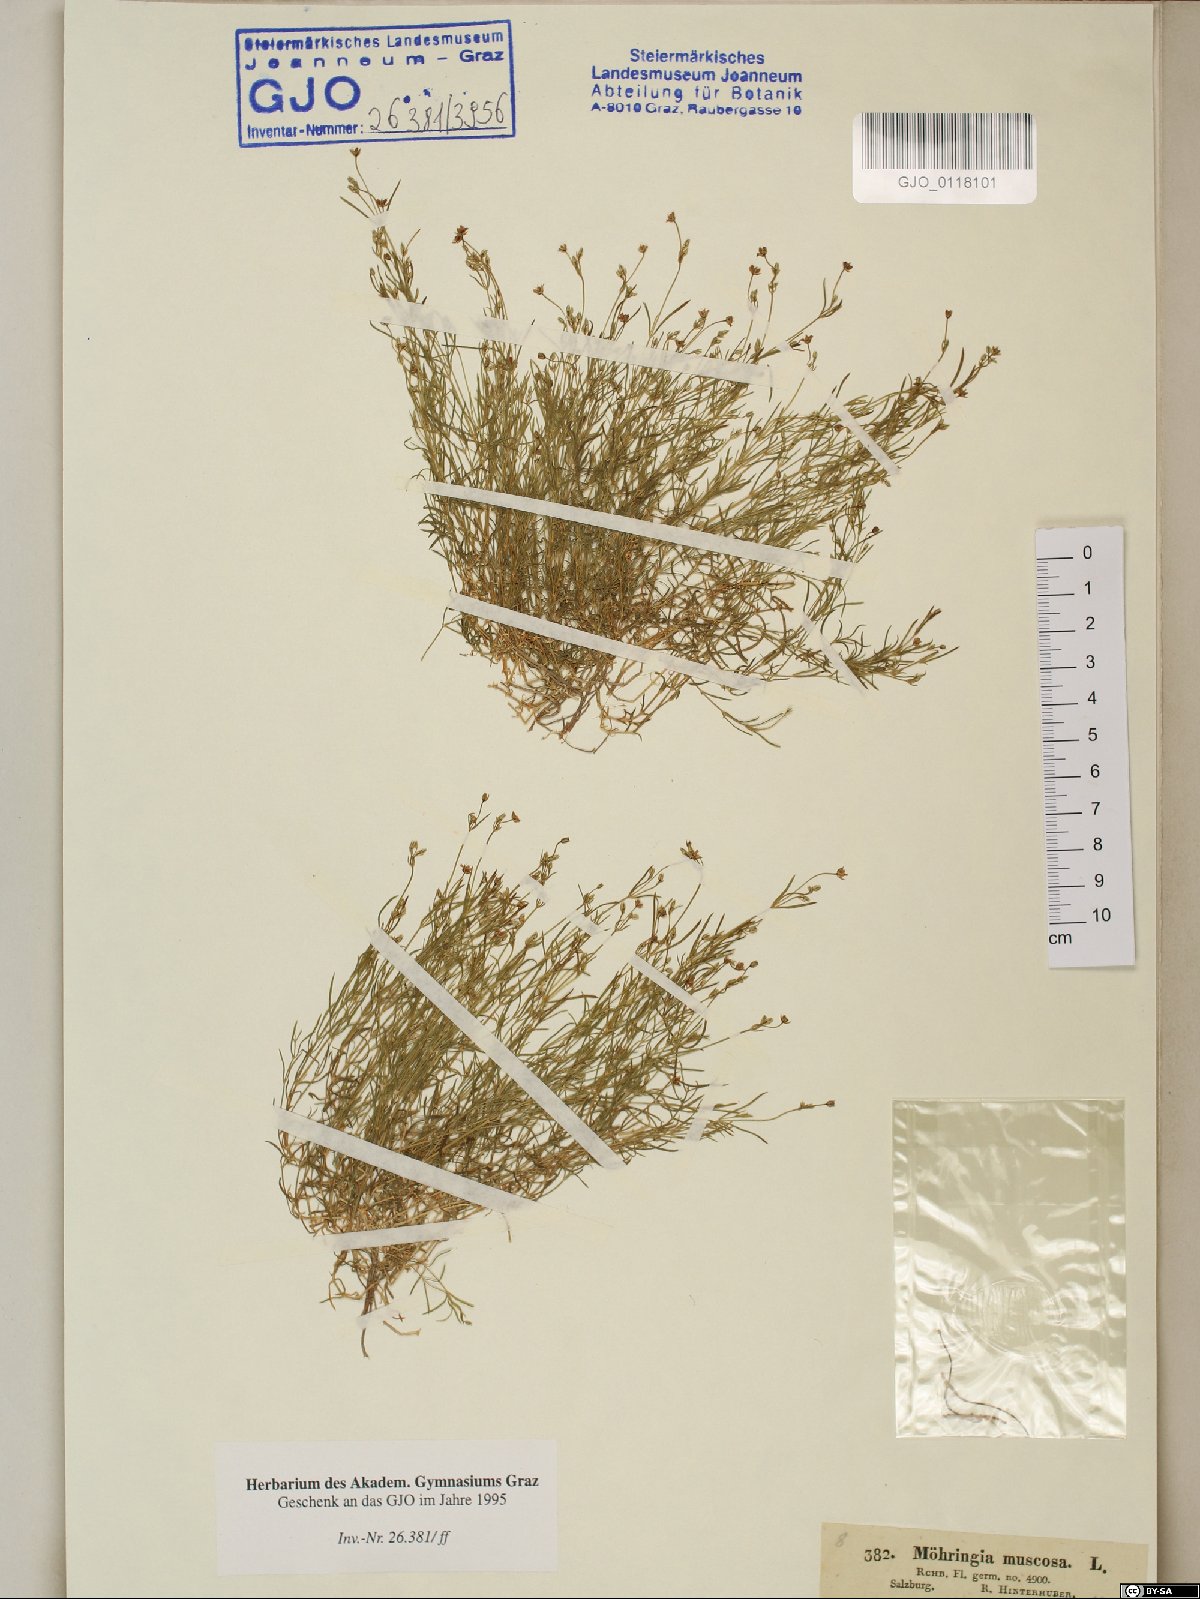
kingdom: Plantae
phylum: Tracheophyta
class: Magnoliopsida
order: Caryophyllales
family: Caryophyllaceae
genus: Moehringia
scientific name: Moehringia muscosa
